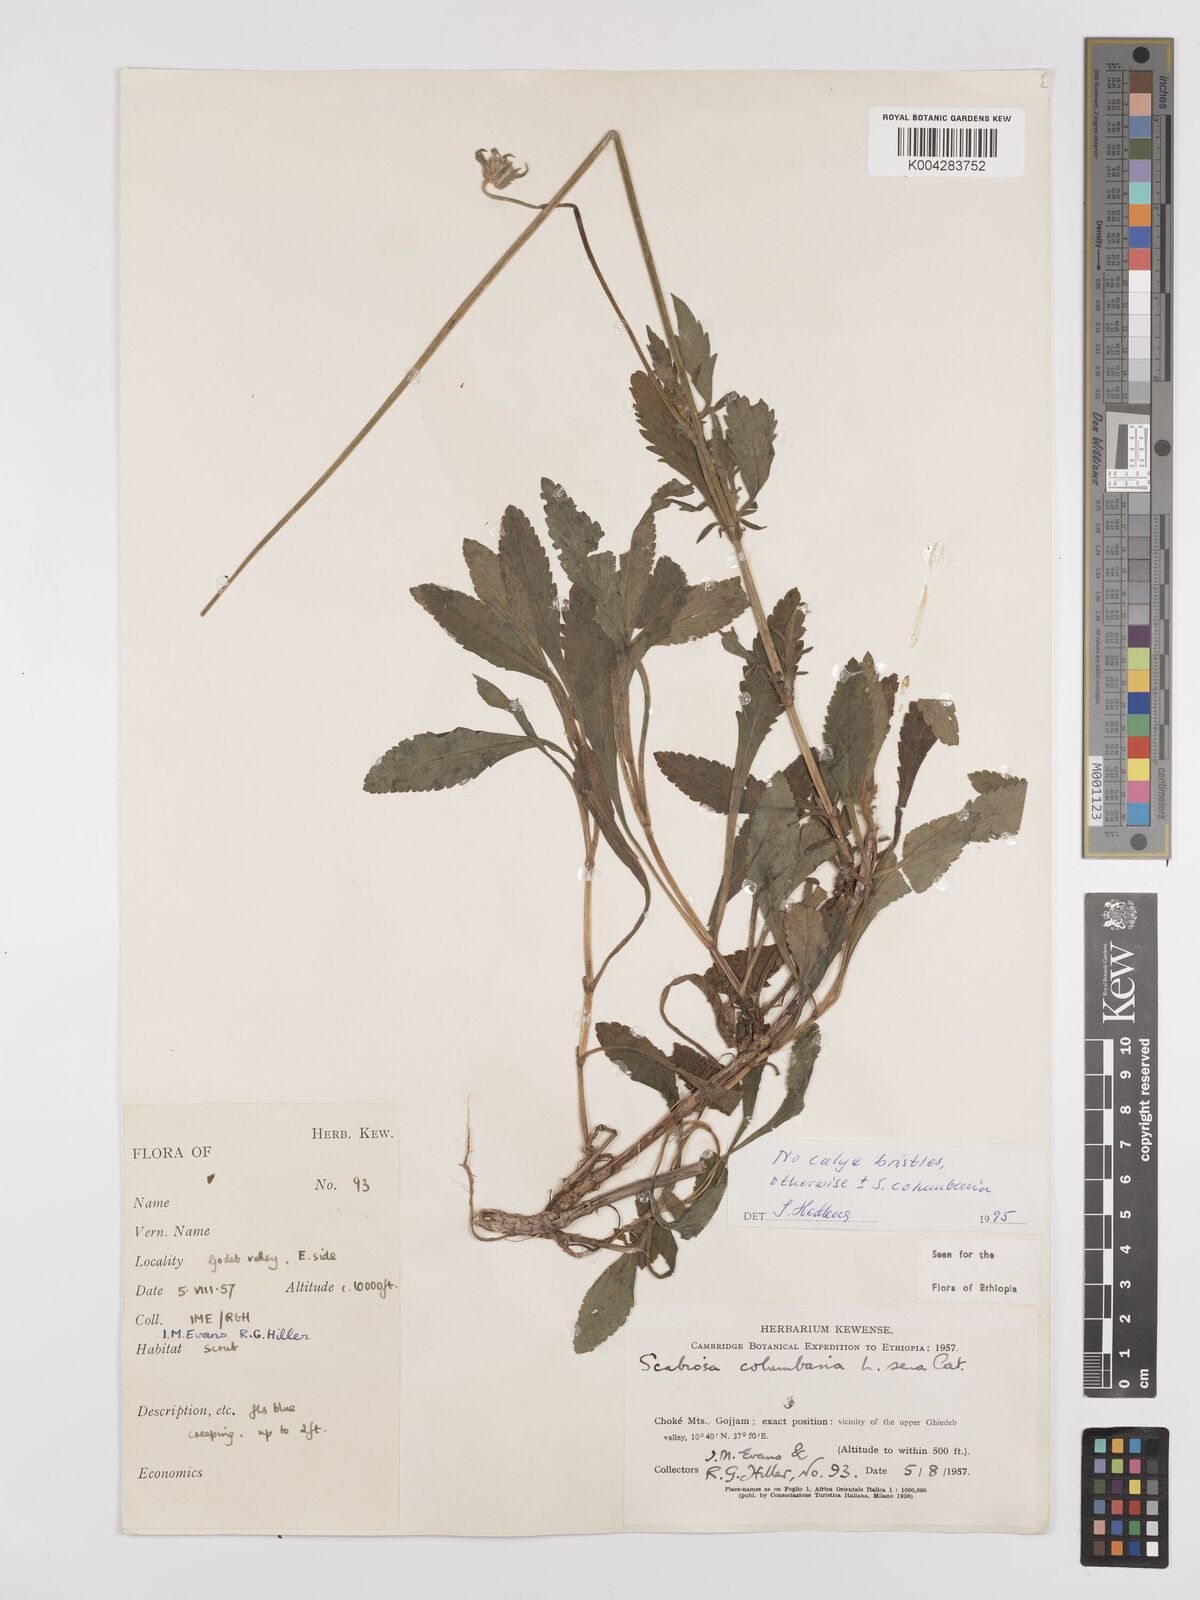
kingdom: Plantae
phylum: Tracheophyta
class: Magnoliopsida
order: Dipsacales
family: Caprifoliaceae
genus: Scabiosa
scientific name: Scabiosa columbaria
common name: Small scabious
